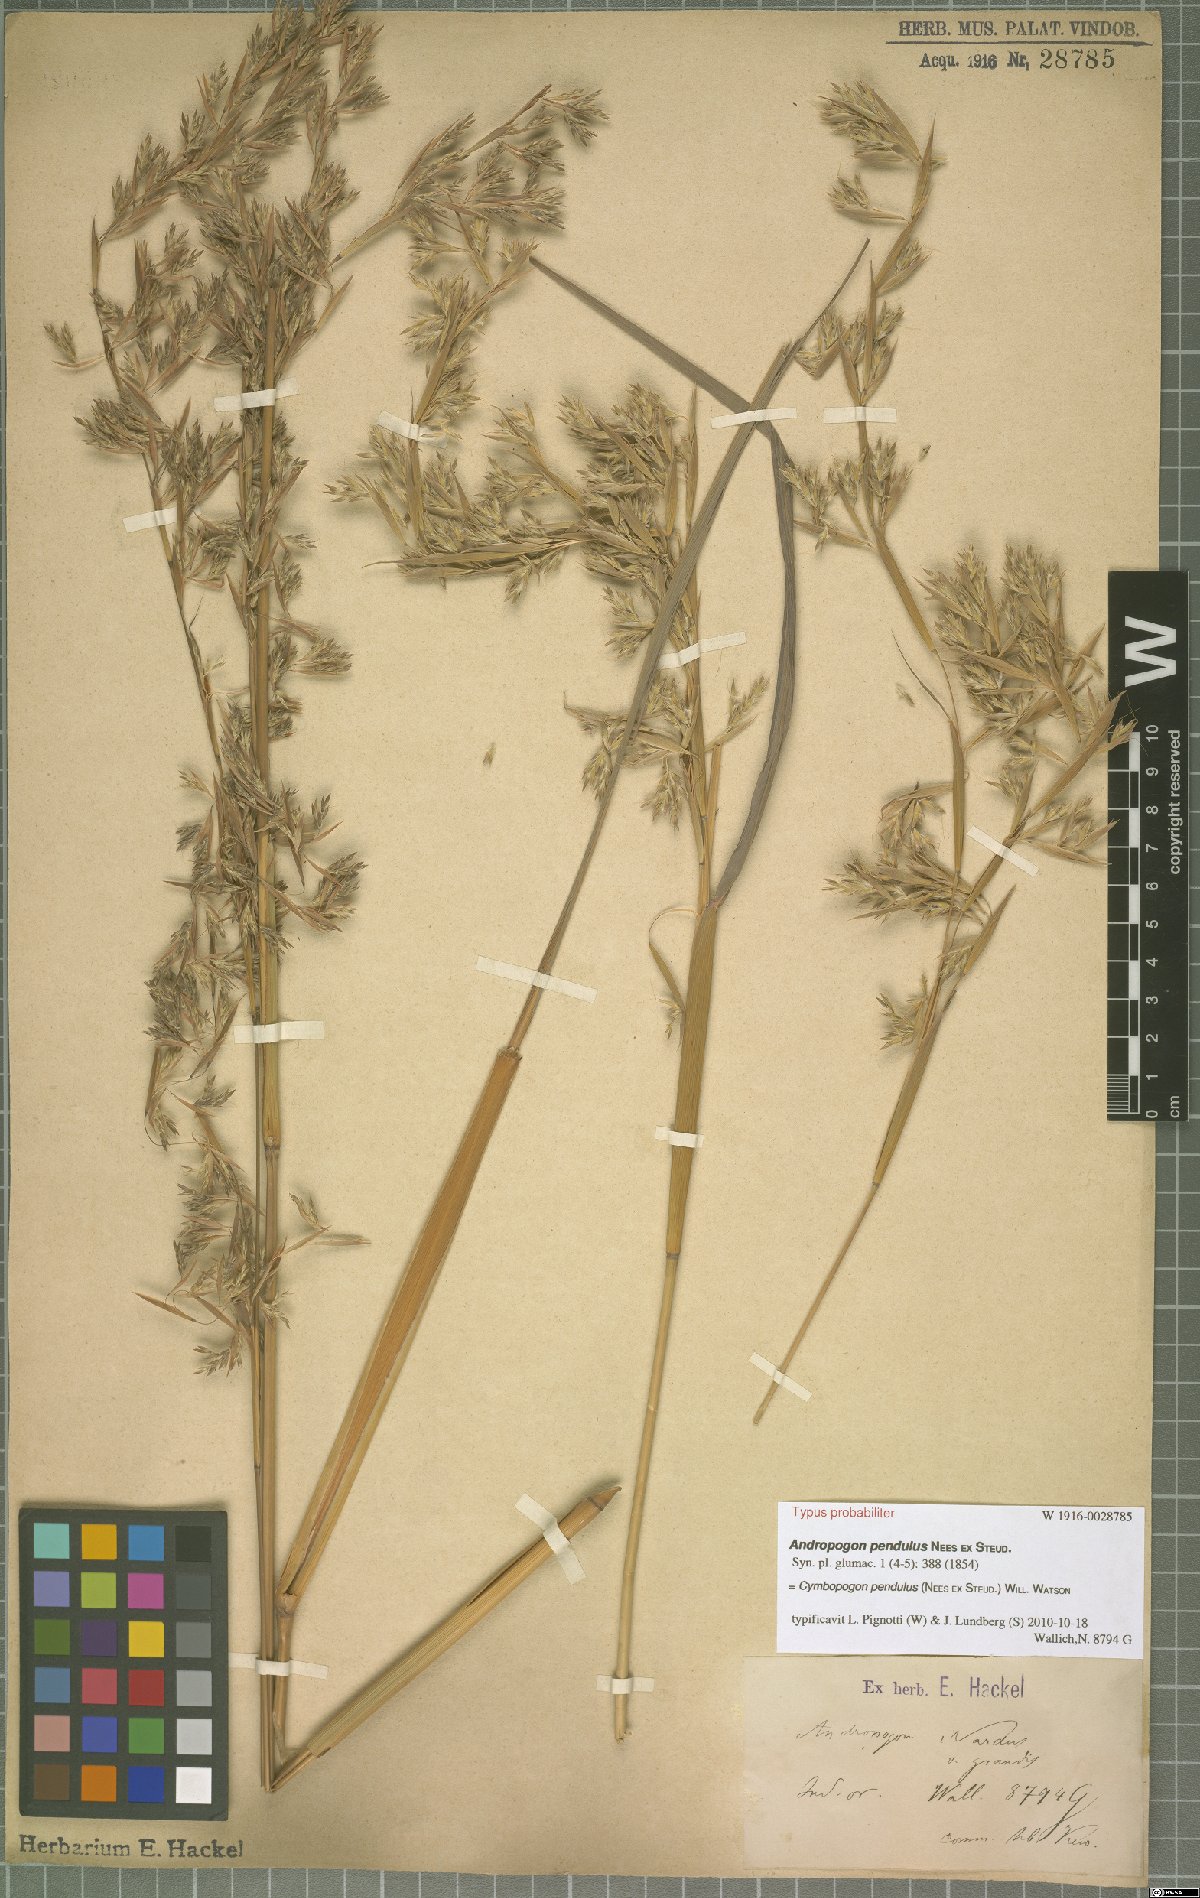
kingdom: Plantae
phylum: Tracheophyta
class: Liliopsida
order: Poales
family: Poaceae
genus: Cymbopogon
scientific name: Cymbopogon pendulus
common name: Jammu lemongrass
